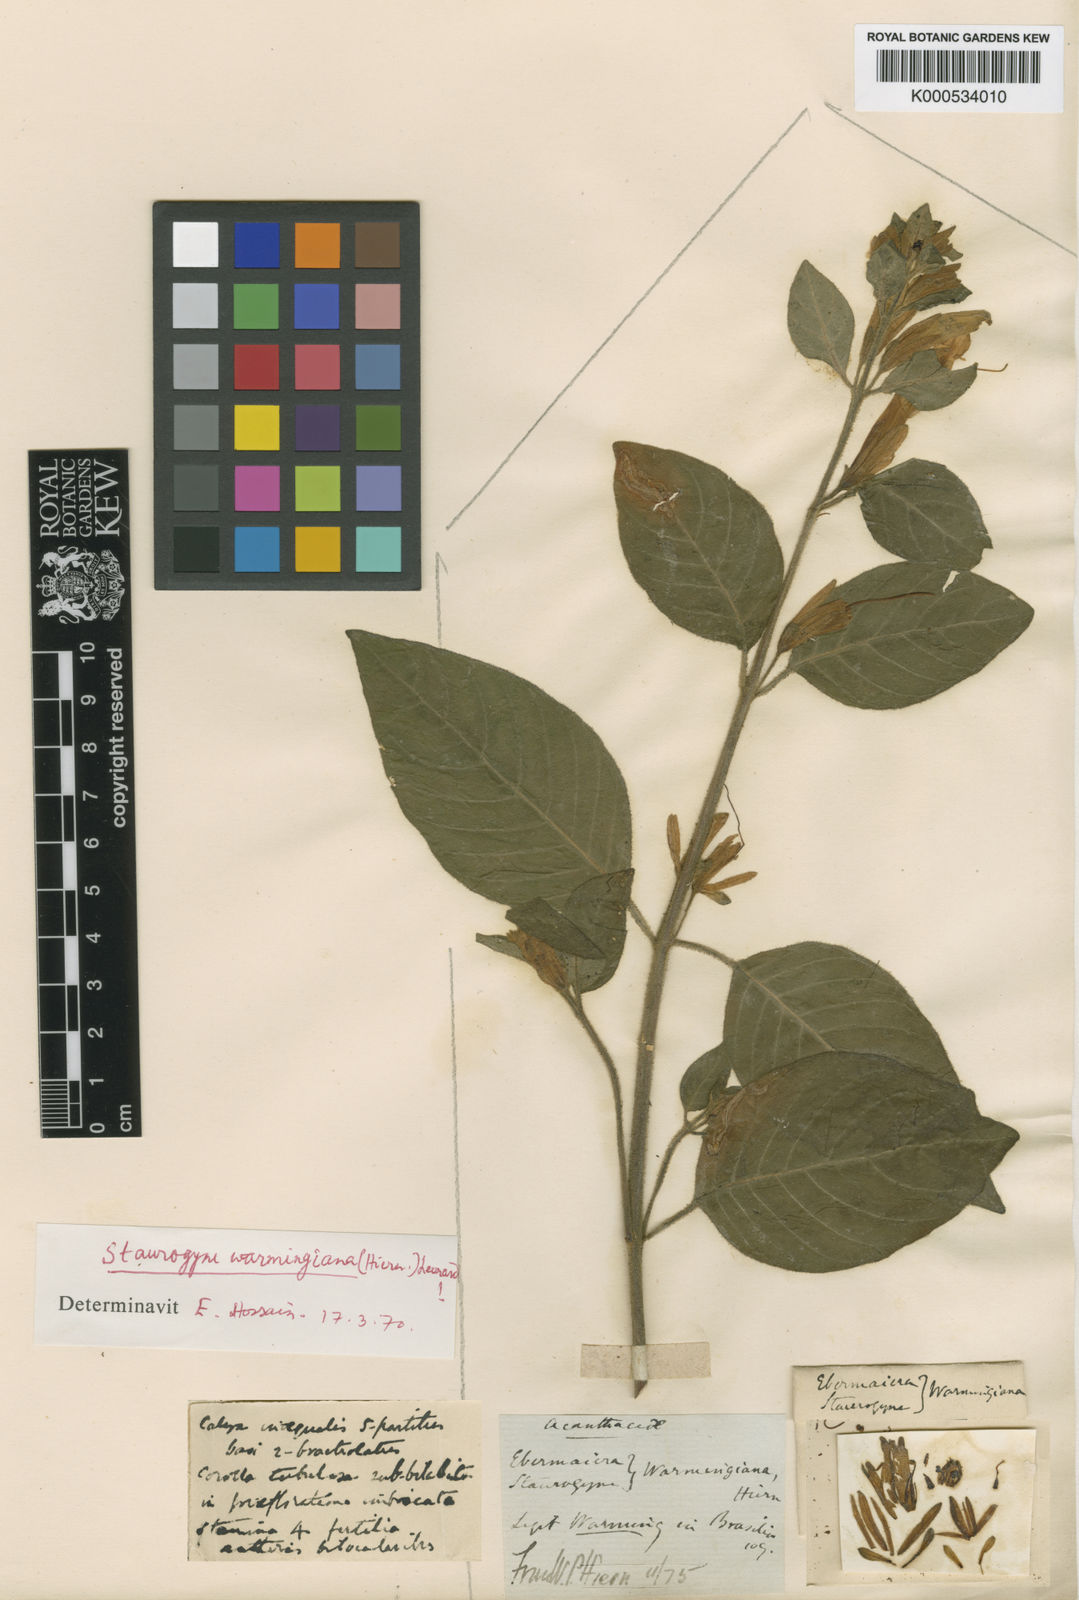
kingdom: Plantae
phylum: Tracheophyta
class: Magnoliopsida
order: Lamiales
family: Acanthaceae
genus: Staurogyne
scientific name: Staurogyne warmingiana
